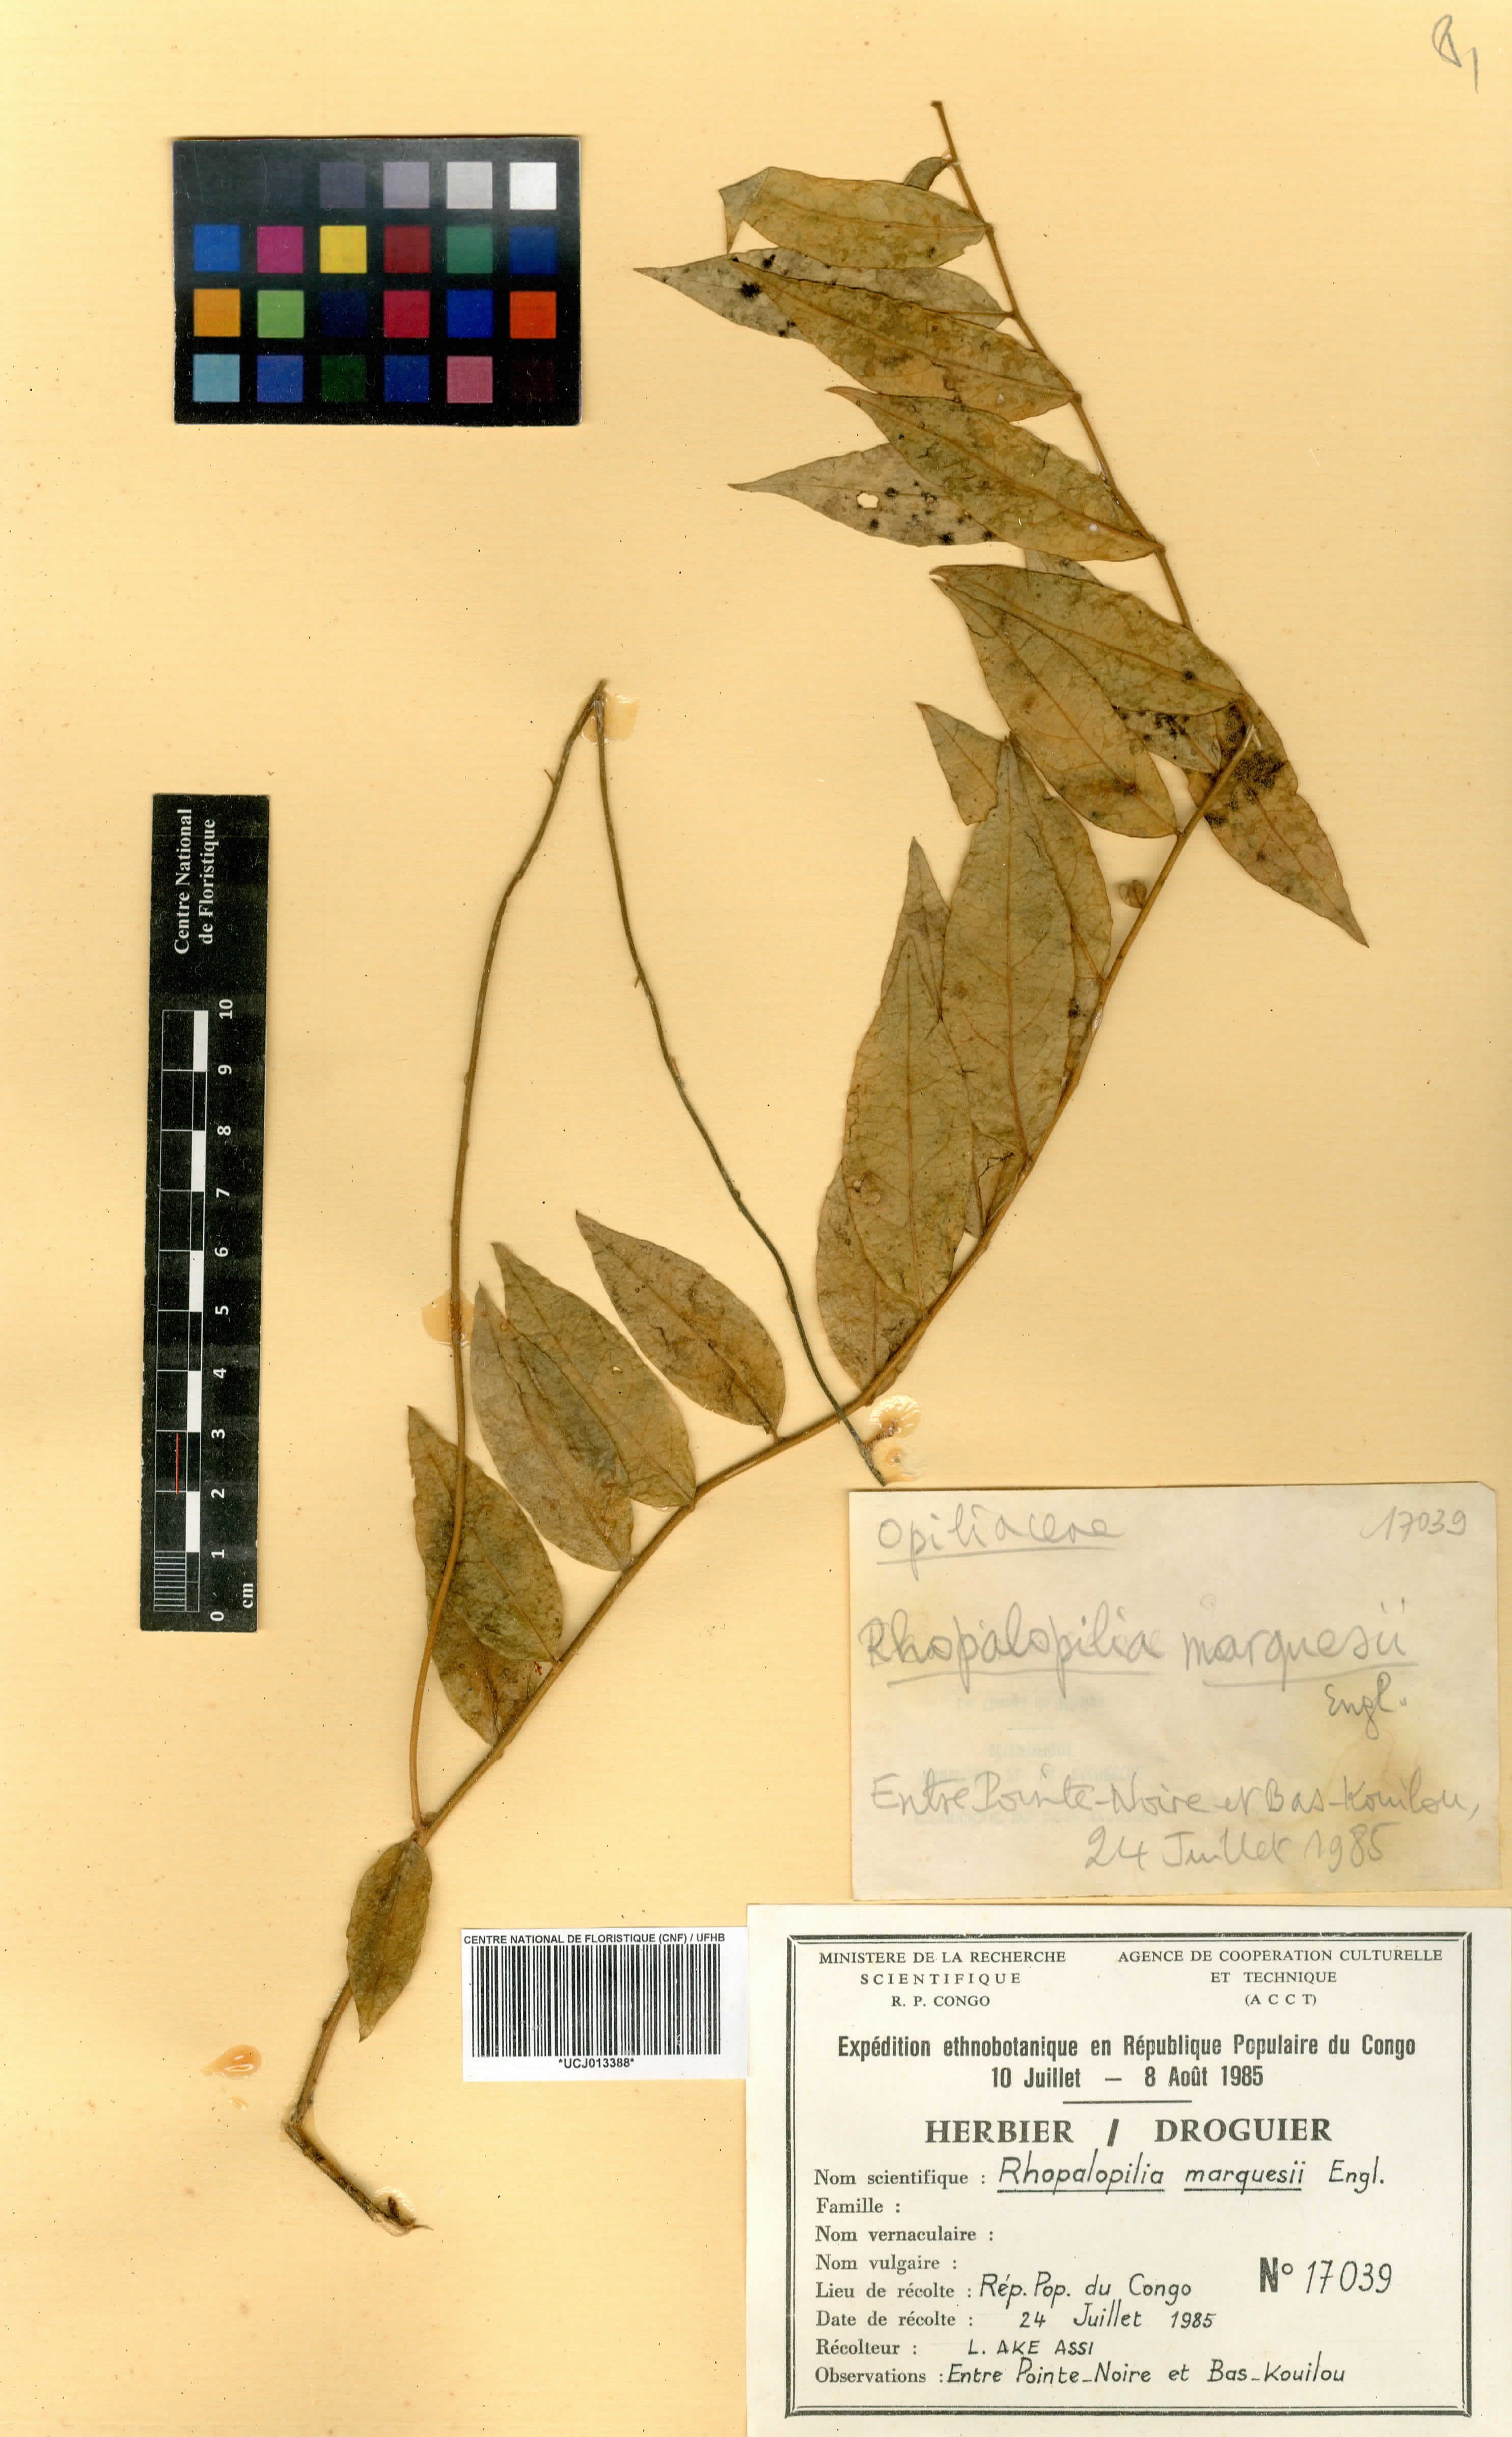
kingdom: Plantae
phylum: Tracheophyta
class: Magnoliopsida
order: Santalales
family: Opiliaceae
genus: Pentarhopalopilia
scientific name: Pentarhopalopilia marquesii
